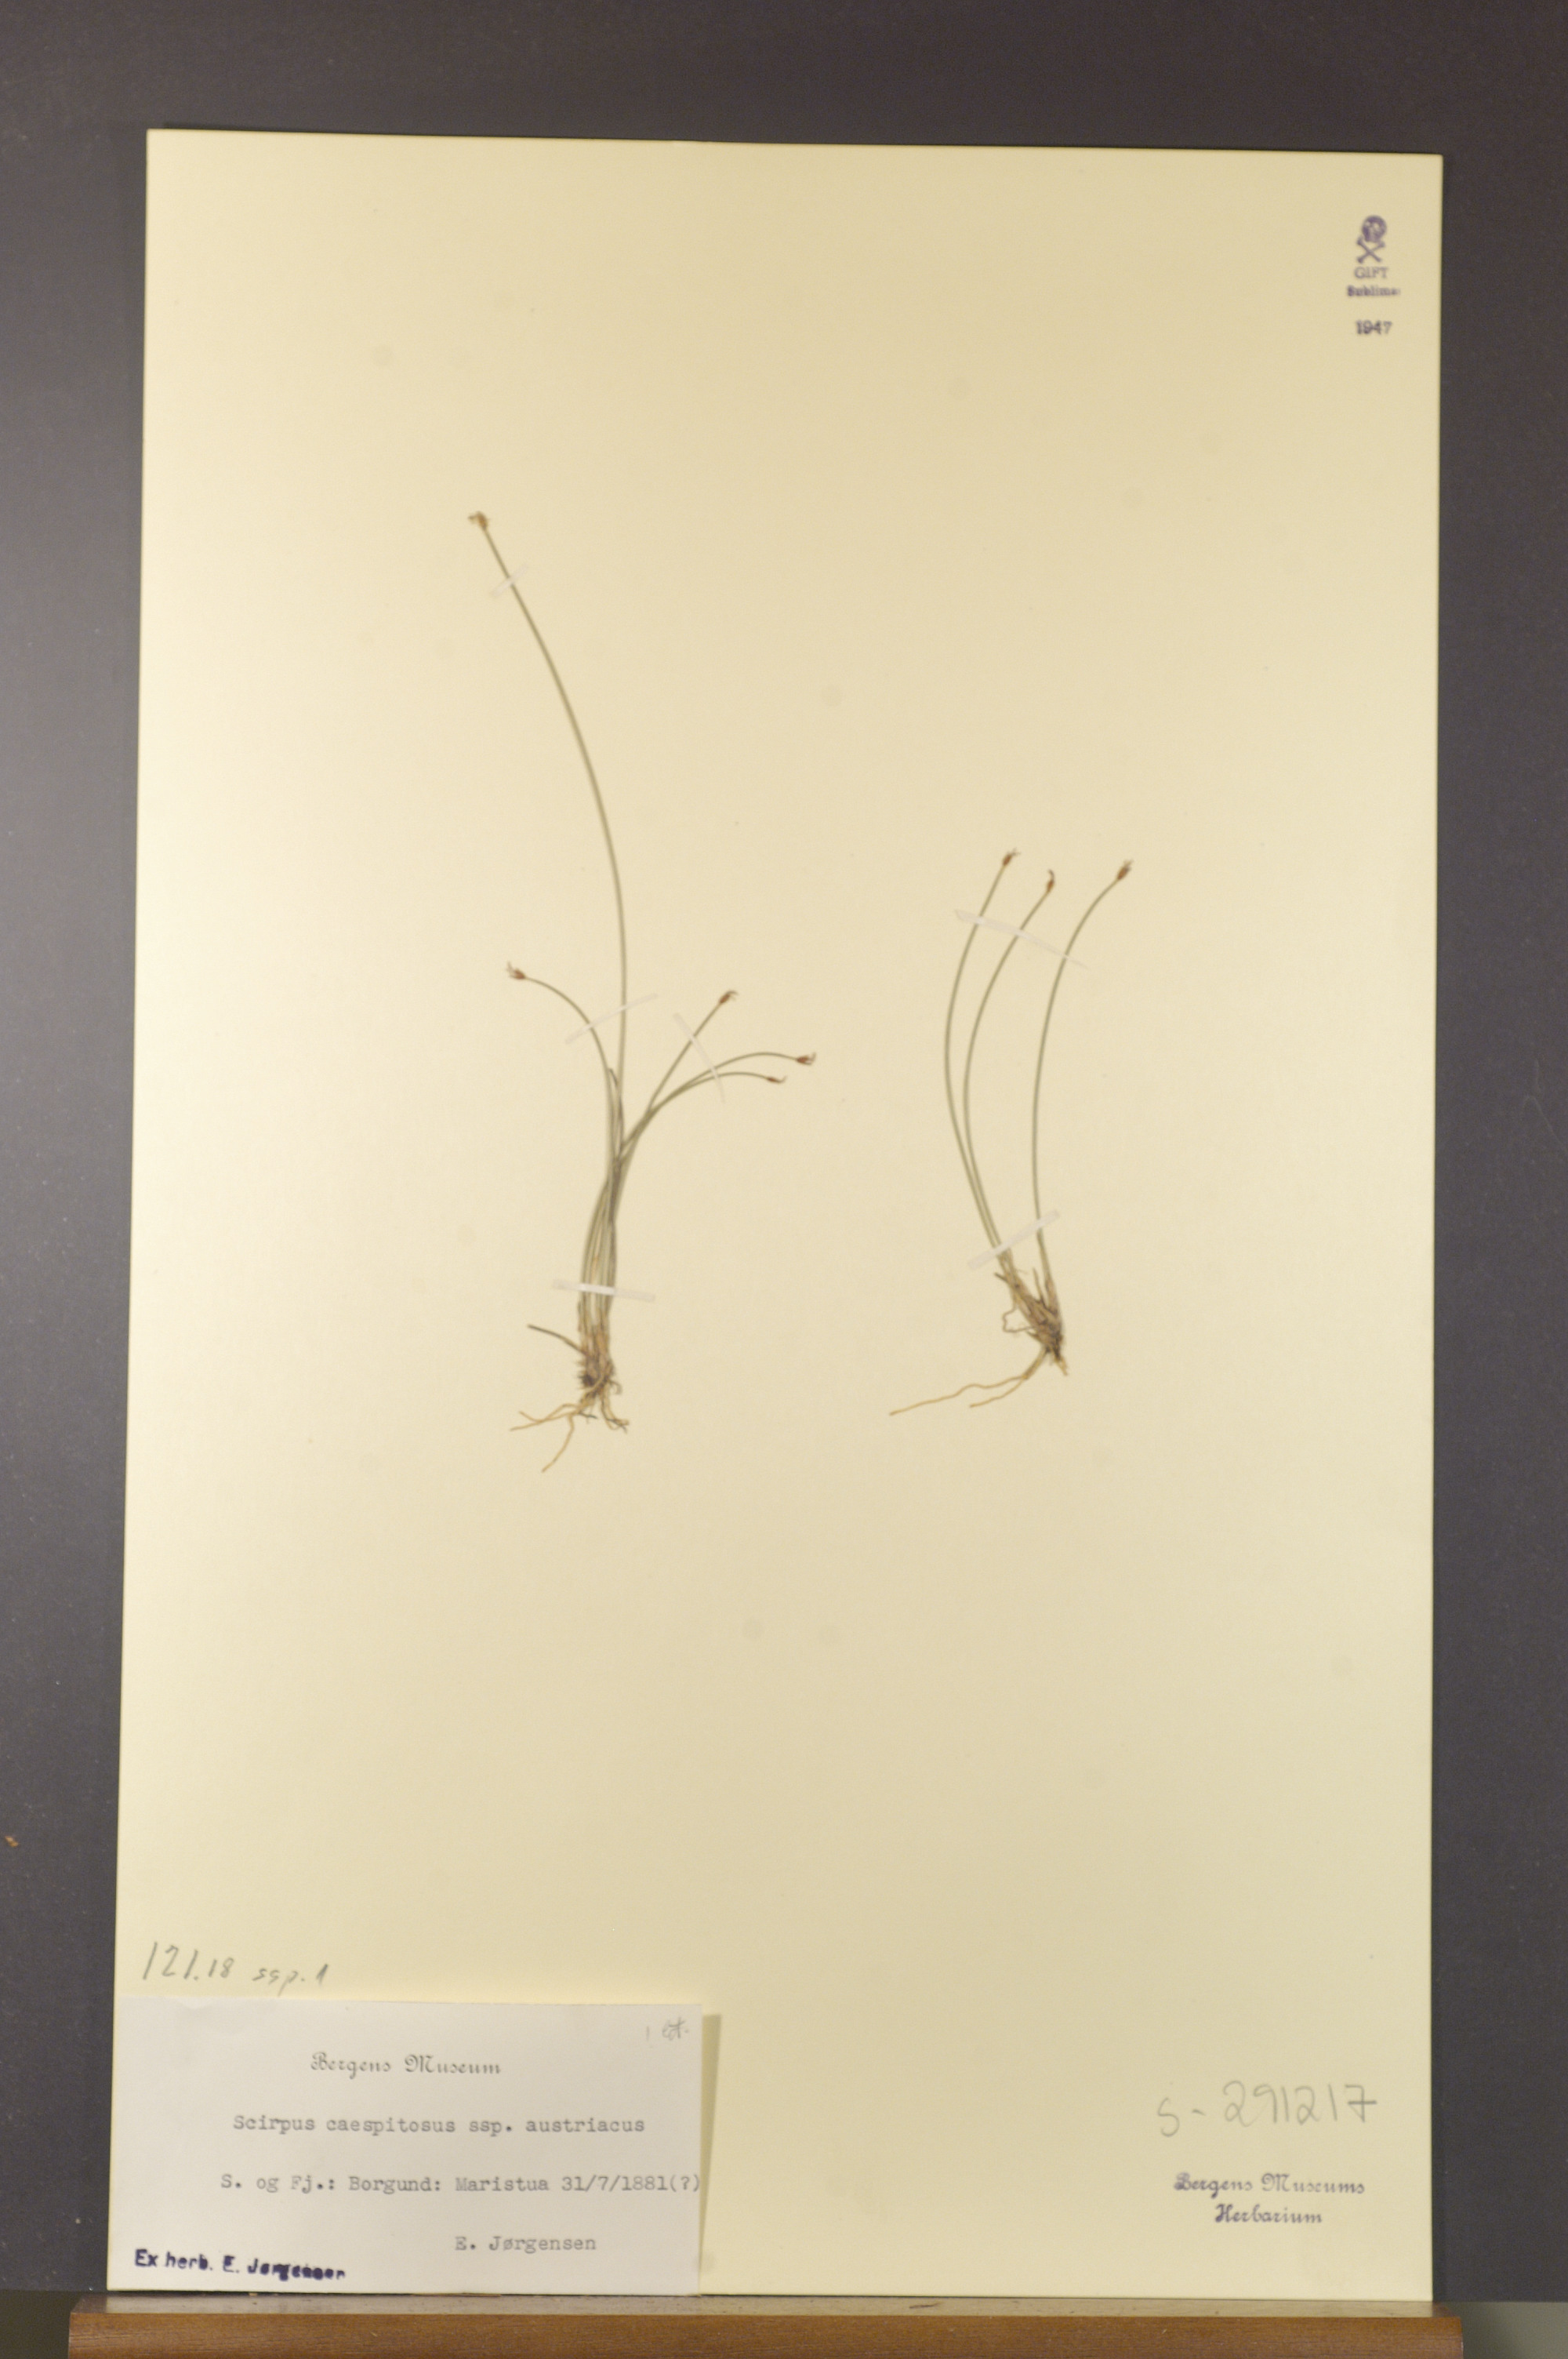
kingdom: Plantae
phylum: Tracheophyta
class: Liliopsida
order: Poales
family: Cyperaceae
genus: Trichophorum
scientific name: Trichophorum cespitosum
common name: Cespitose bulrush
